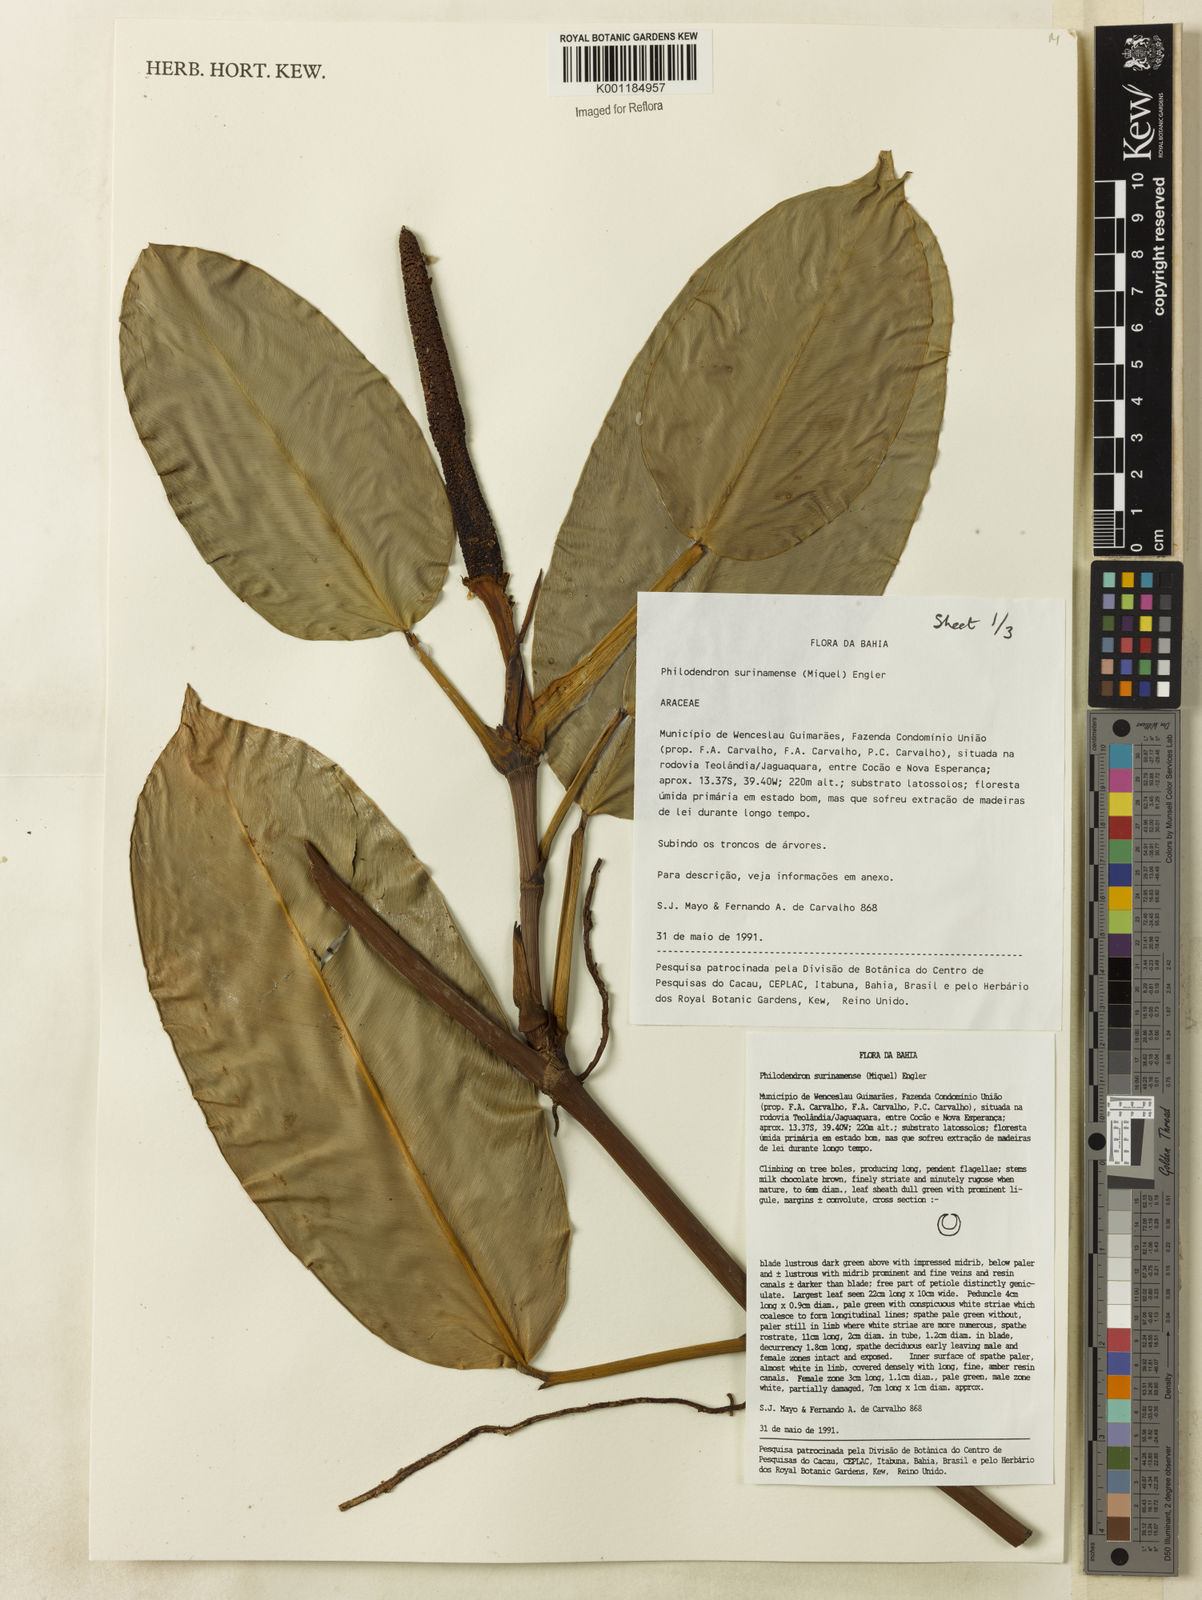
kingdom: Plantae
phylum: Tracheophyta
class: Liliopsida
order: Alismatales
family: Araceae
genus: Philodendron
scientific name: Philodendron surinamense
